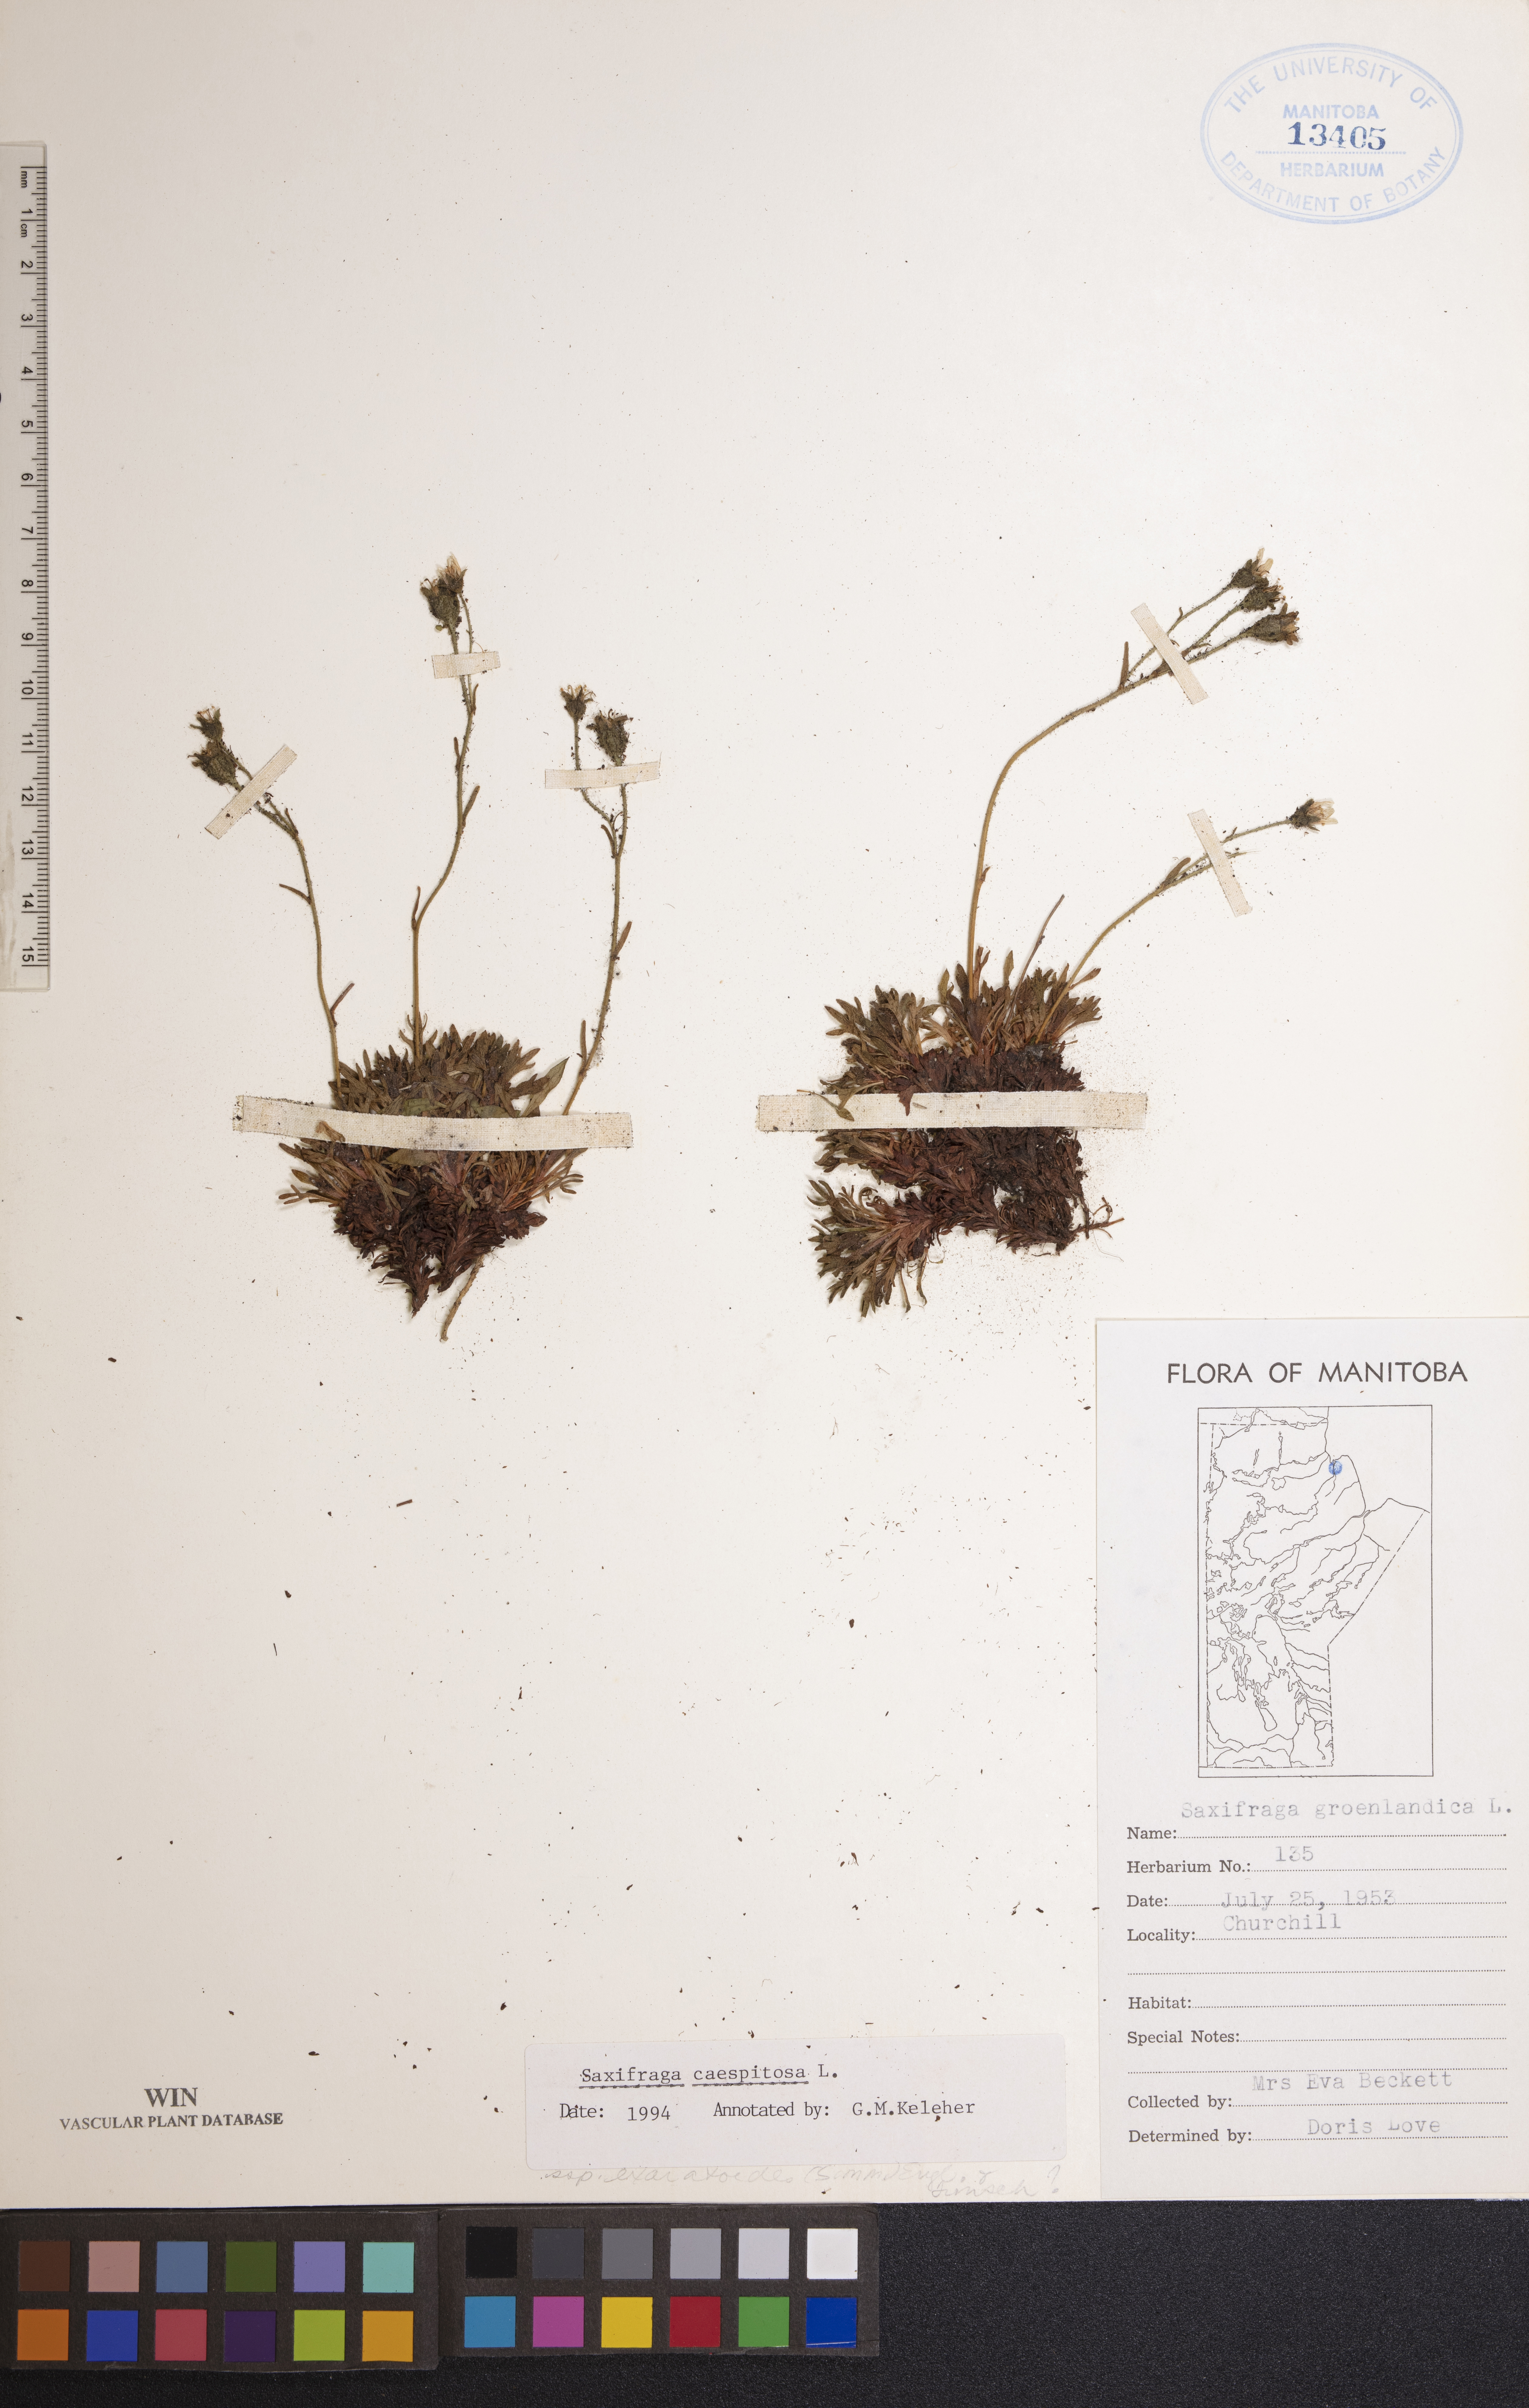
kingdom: Plantae
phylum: Tracheophyta
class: Magnoliopsida
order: Saxifragales
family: Saxifragaceae
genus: Saxifraga
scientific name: Saxifraga cespitosa
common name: Tufted saxifrage
